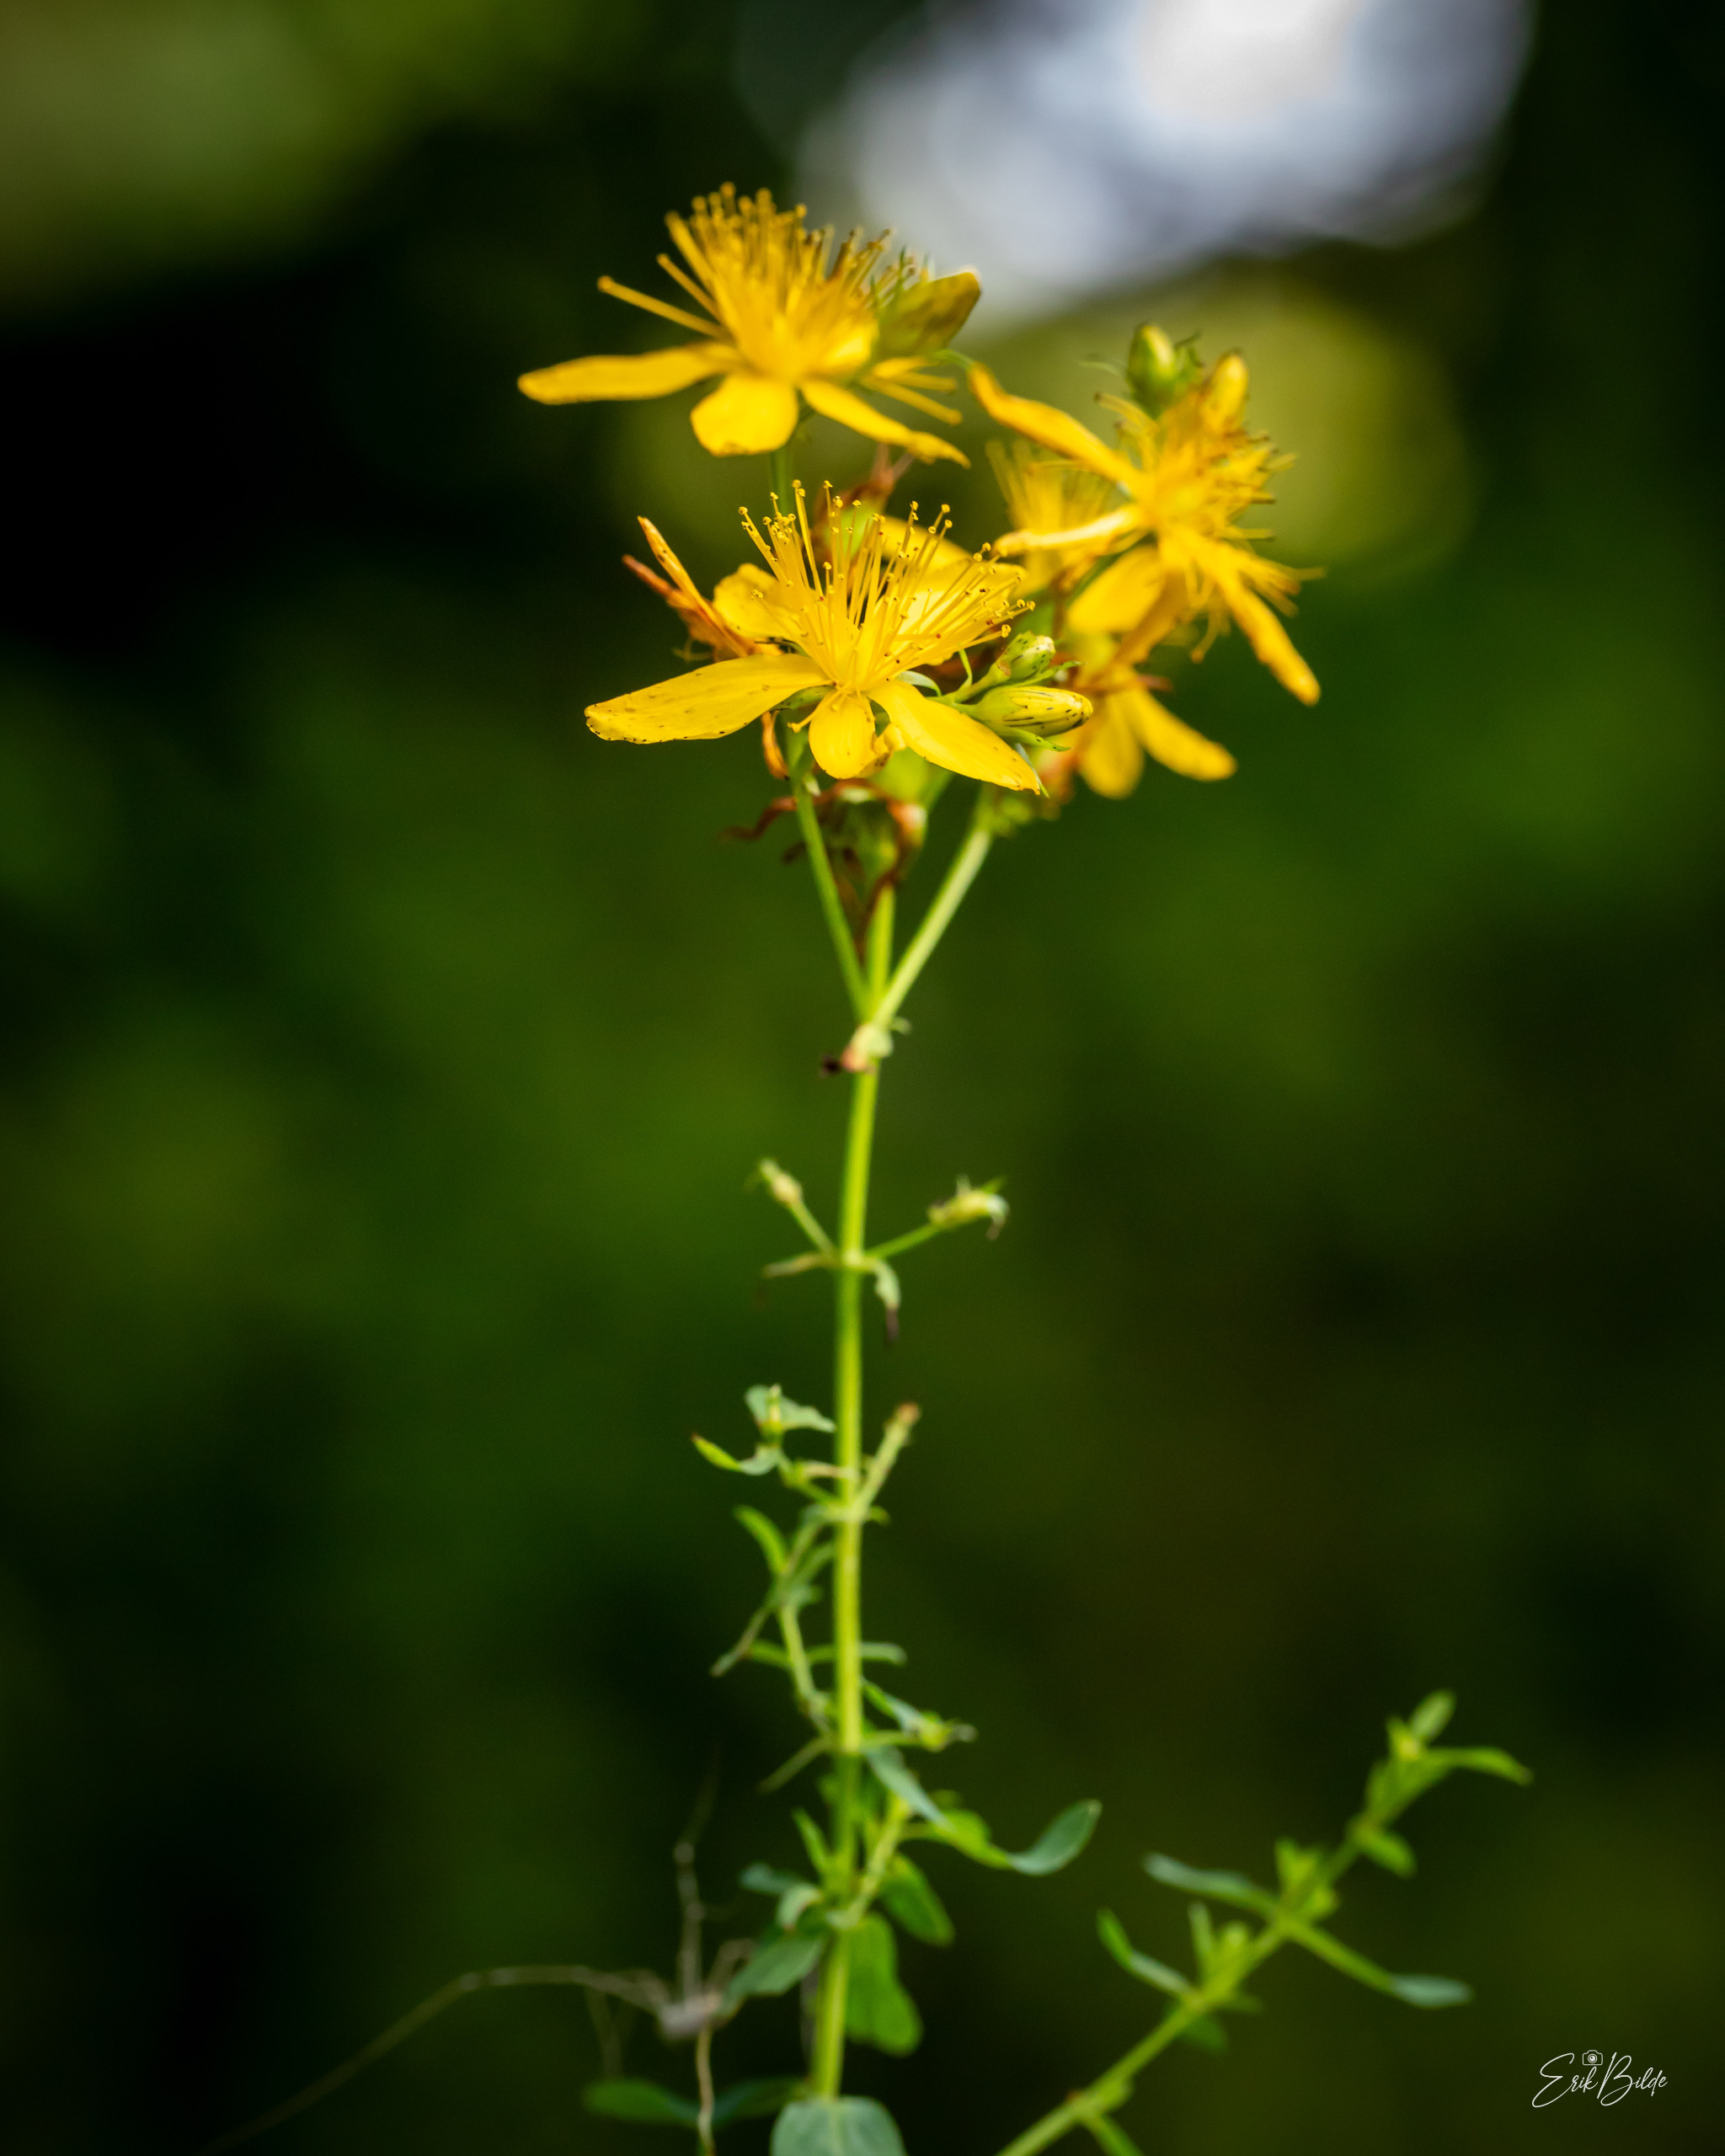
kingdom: Plantae
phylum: Tracheophyta
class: Magnoliopsida
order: Malpighiales
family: Hypericaceae
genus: Hypericum
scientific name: Hypericum perforatum
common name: Prikbladet perikon
